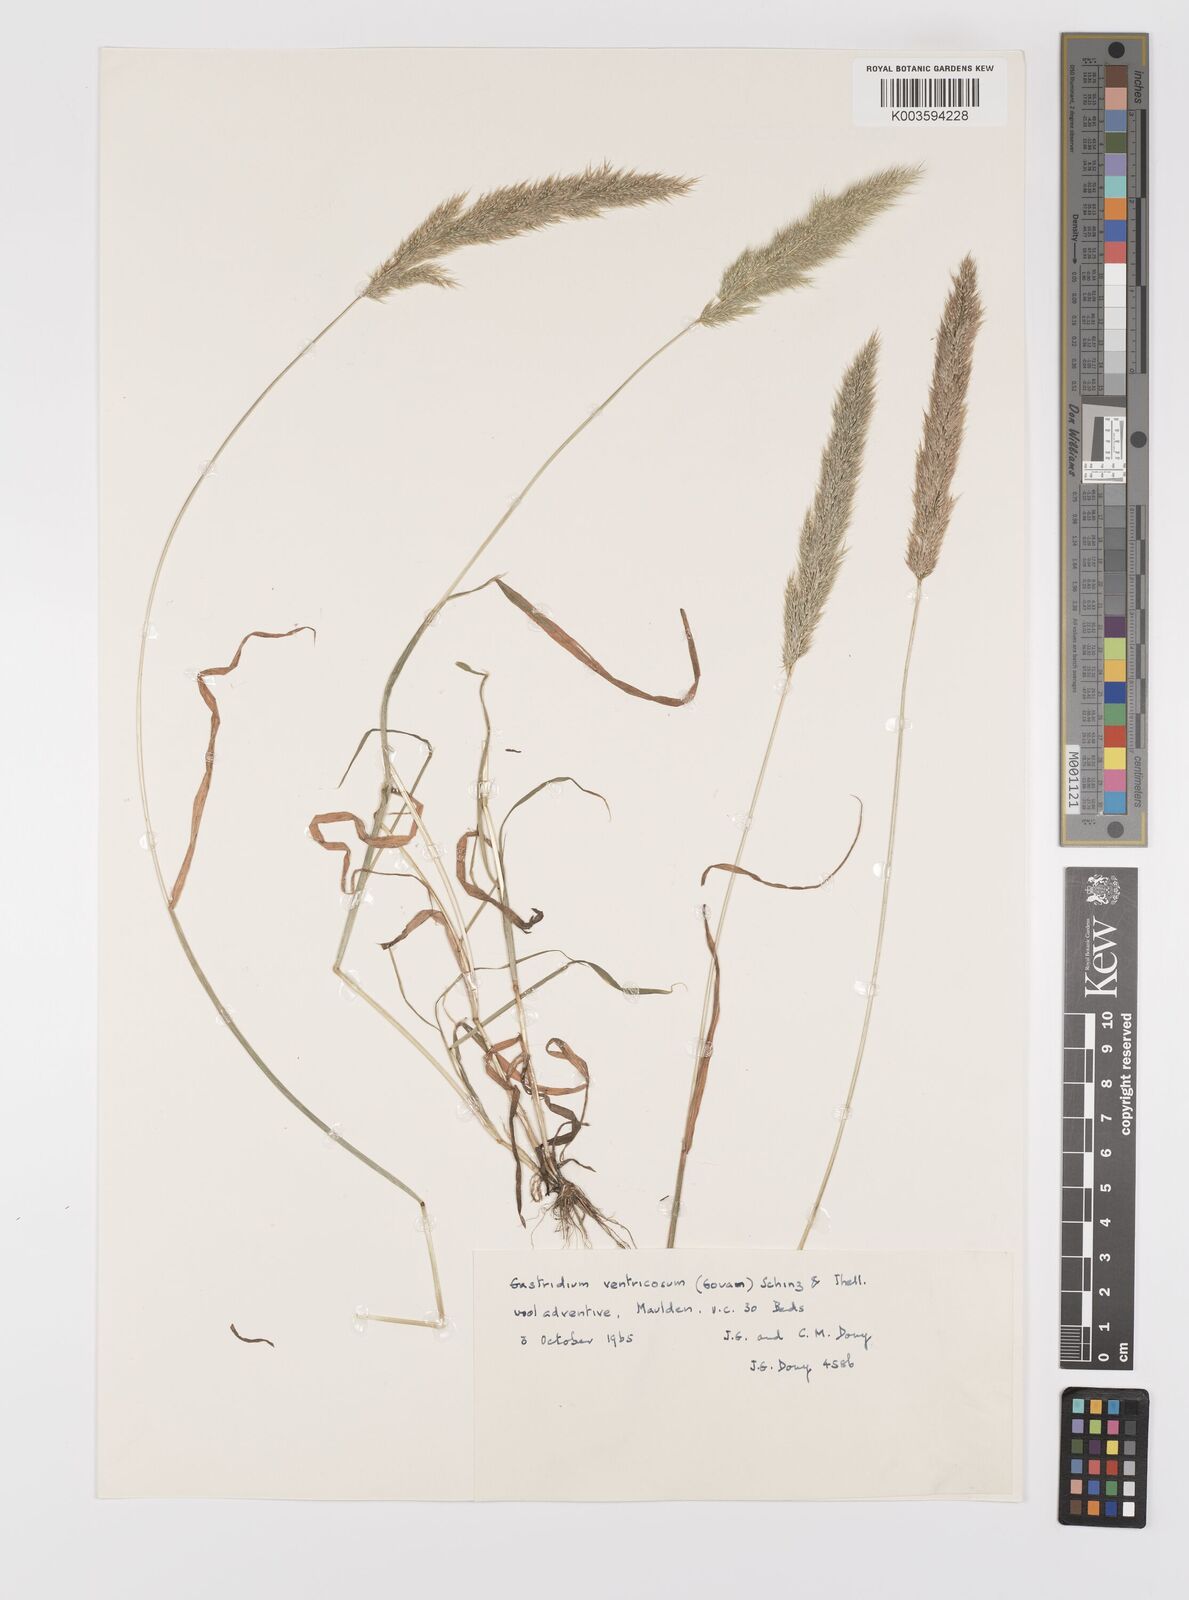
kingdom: Plantae
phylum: Tracheophyta
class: Liliopsida
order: Poales
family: Poaceae
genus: Gastridium
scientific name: Gastridium ventricosum
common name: Nit-grass
